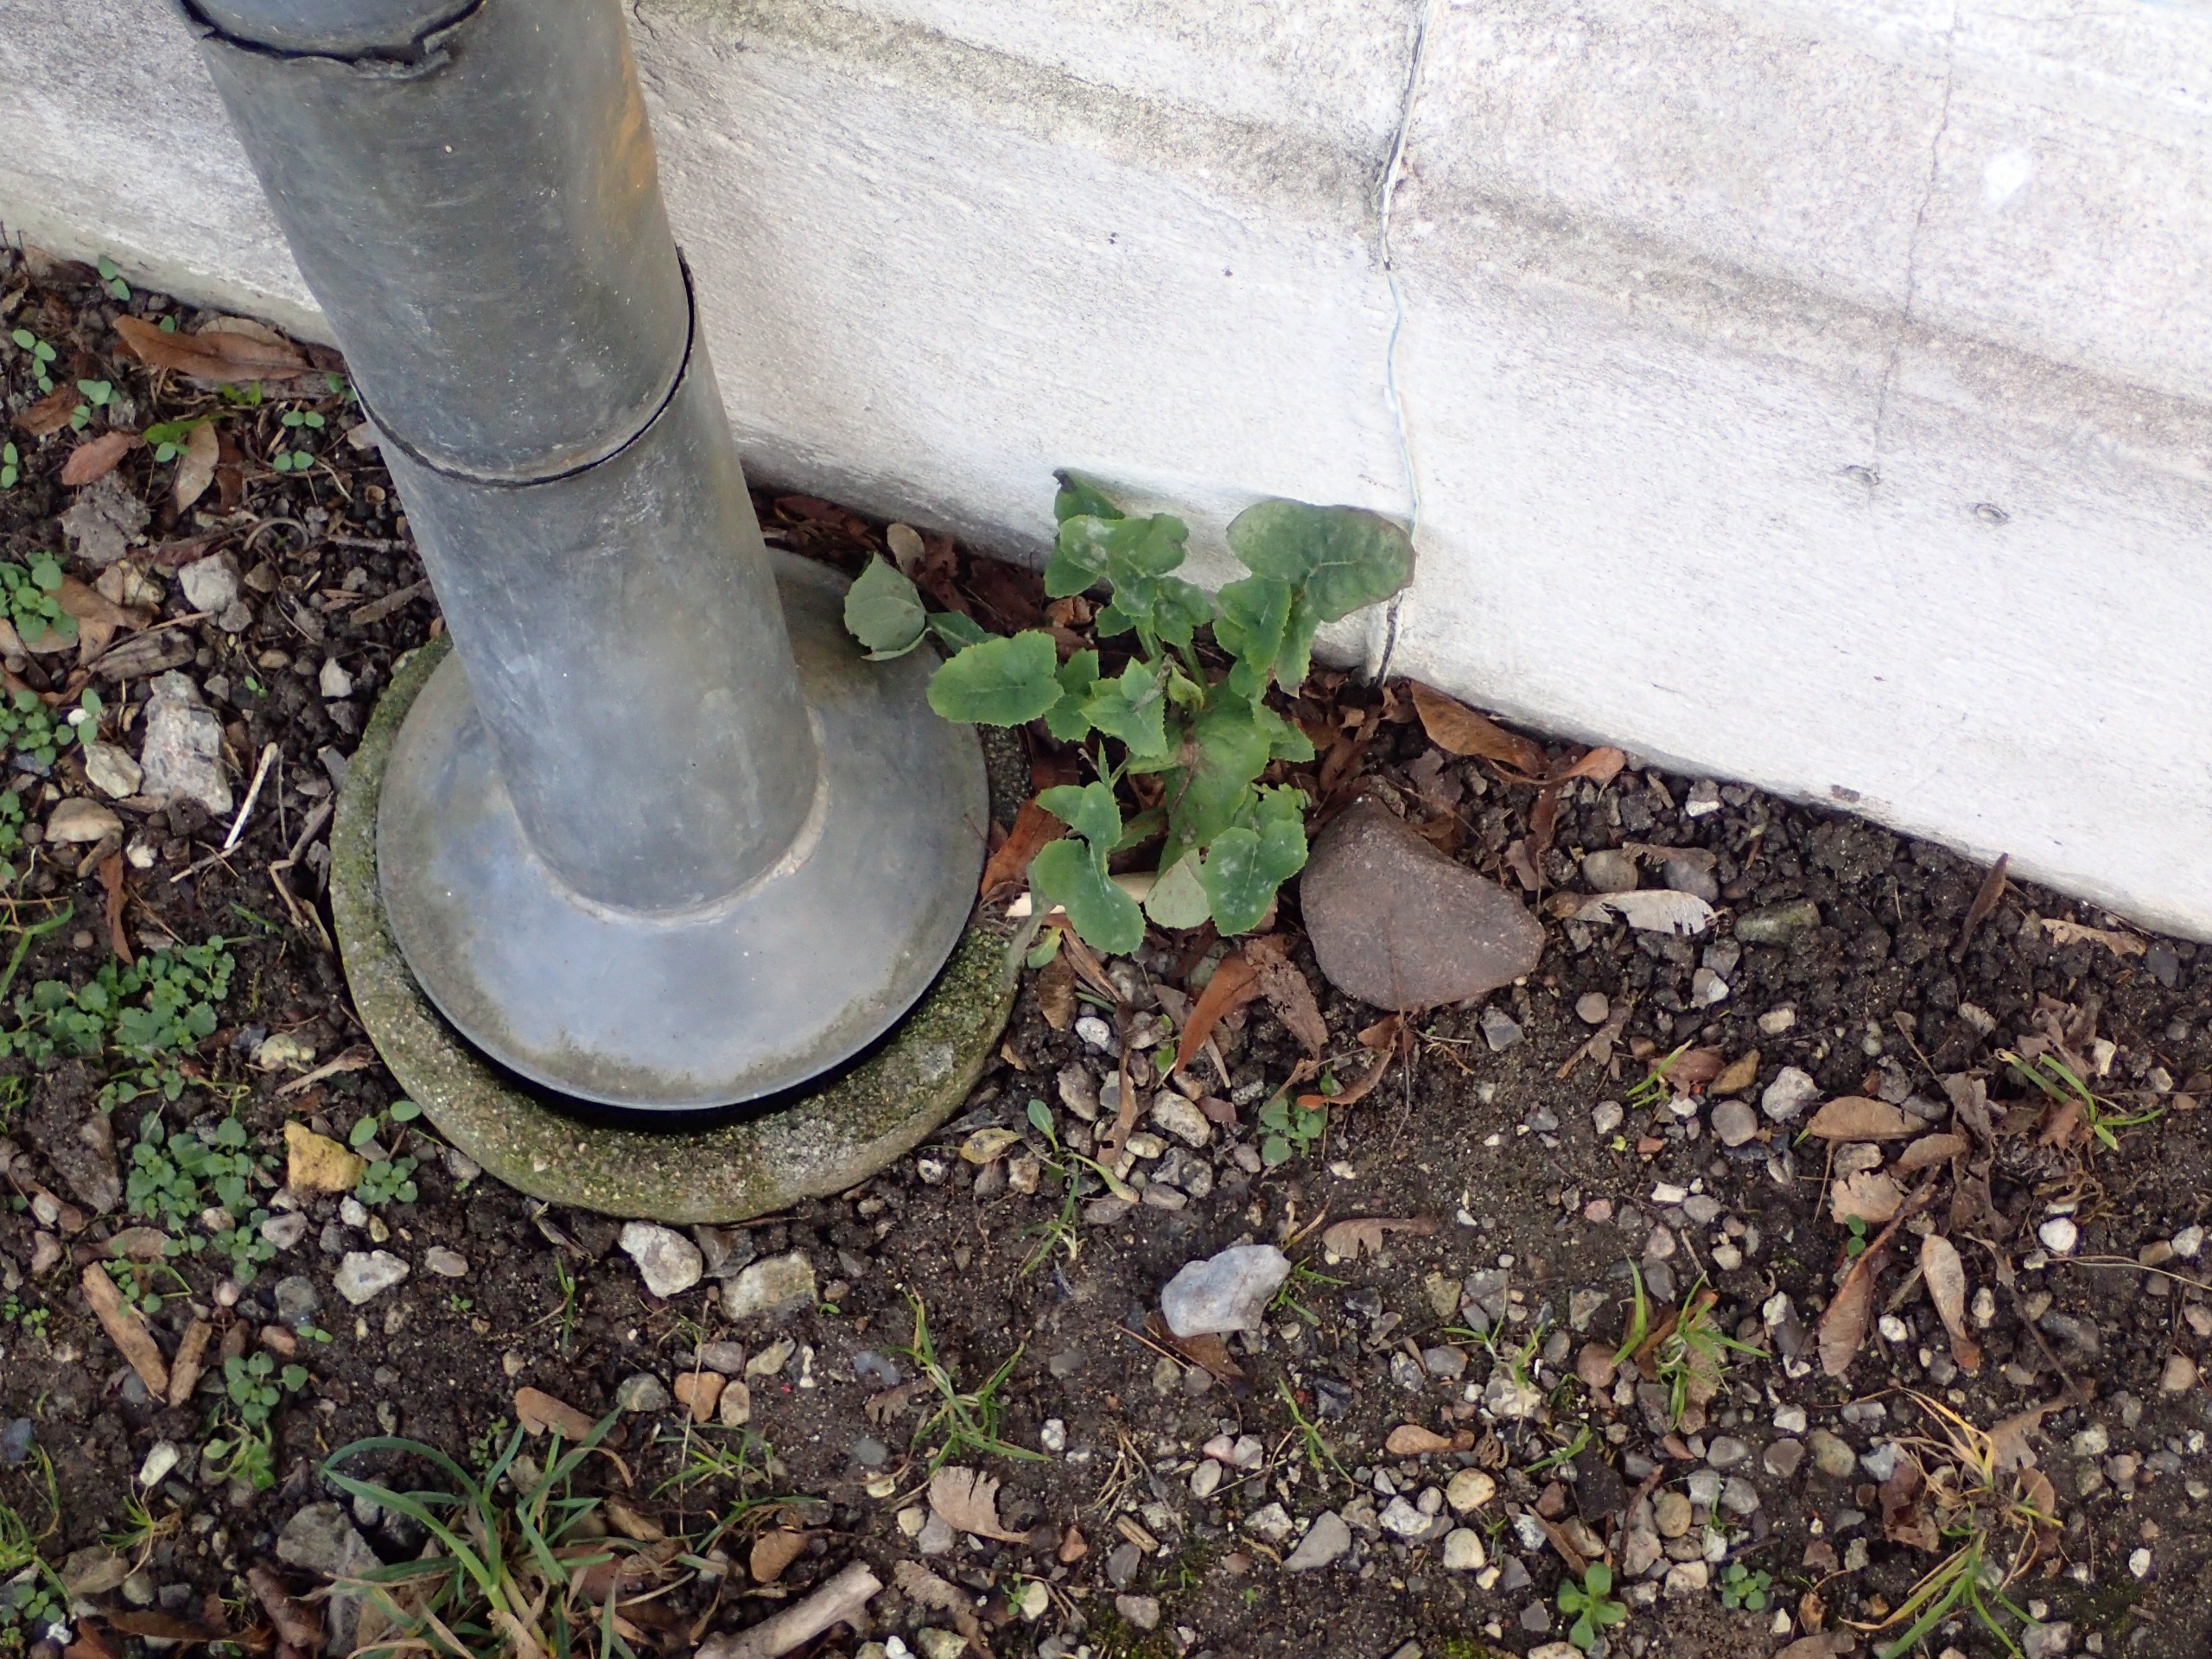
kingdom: Plantae
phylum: Tracheophyta
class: Magnoliopsida
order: Asterales
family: Asteraceae
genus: Sonchus
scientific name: Sonchus oleraceus
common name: Almindelig svinemælk
